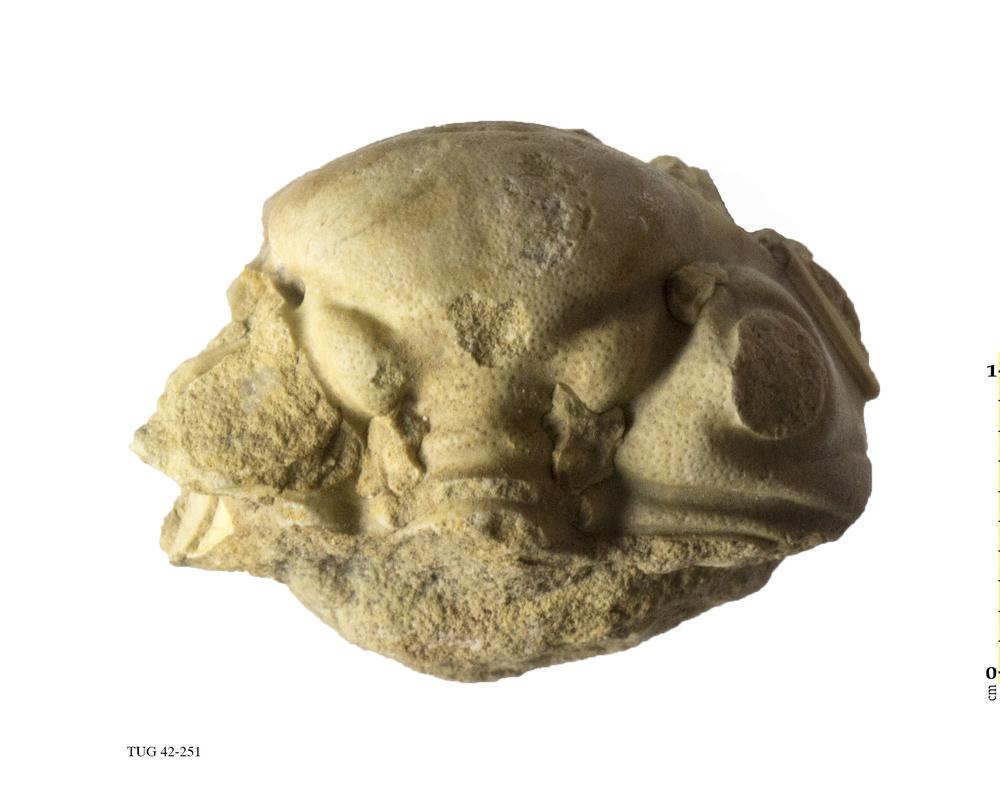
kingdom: Animalia
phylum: Arthropoda
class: Trilobita
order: Phacopida
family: Phacopidae
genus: Phacops
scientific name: Phacops
